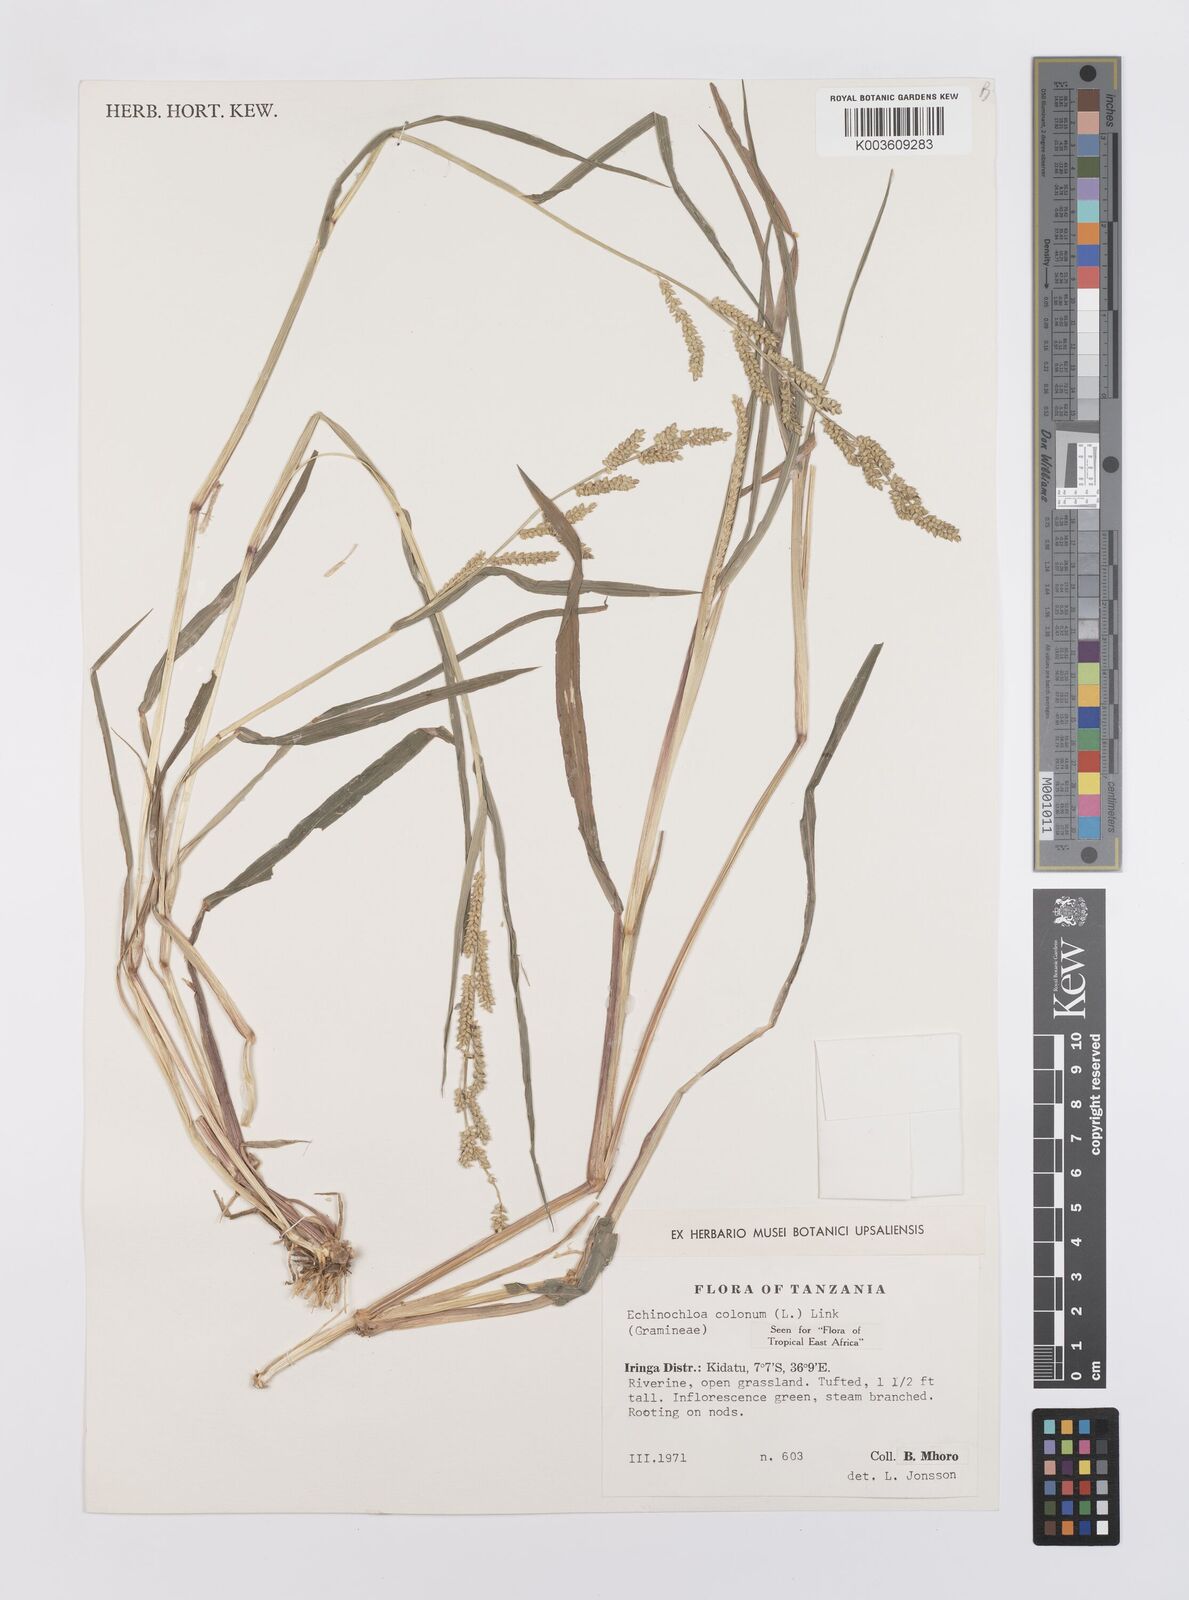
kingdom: Plantae
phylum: Tracheophyta
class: Liliopsida
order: Poales
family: Poaceae
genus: Echinochloa
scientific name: Echinochloa colonum
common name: Jungle rice
